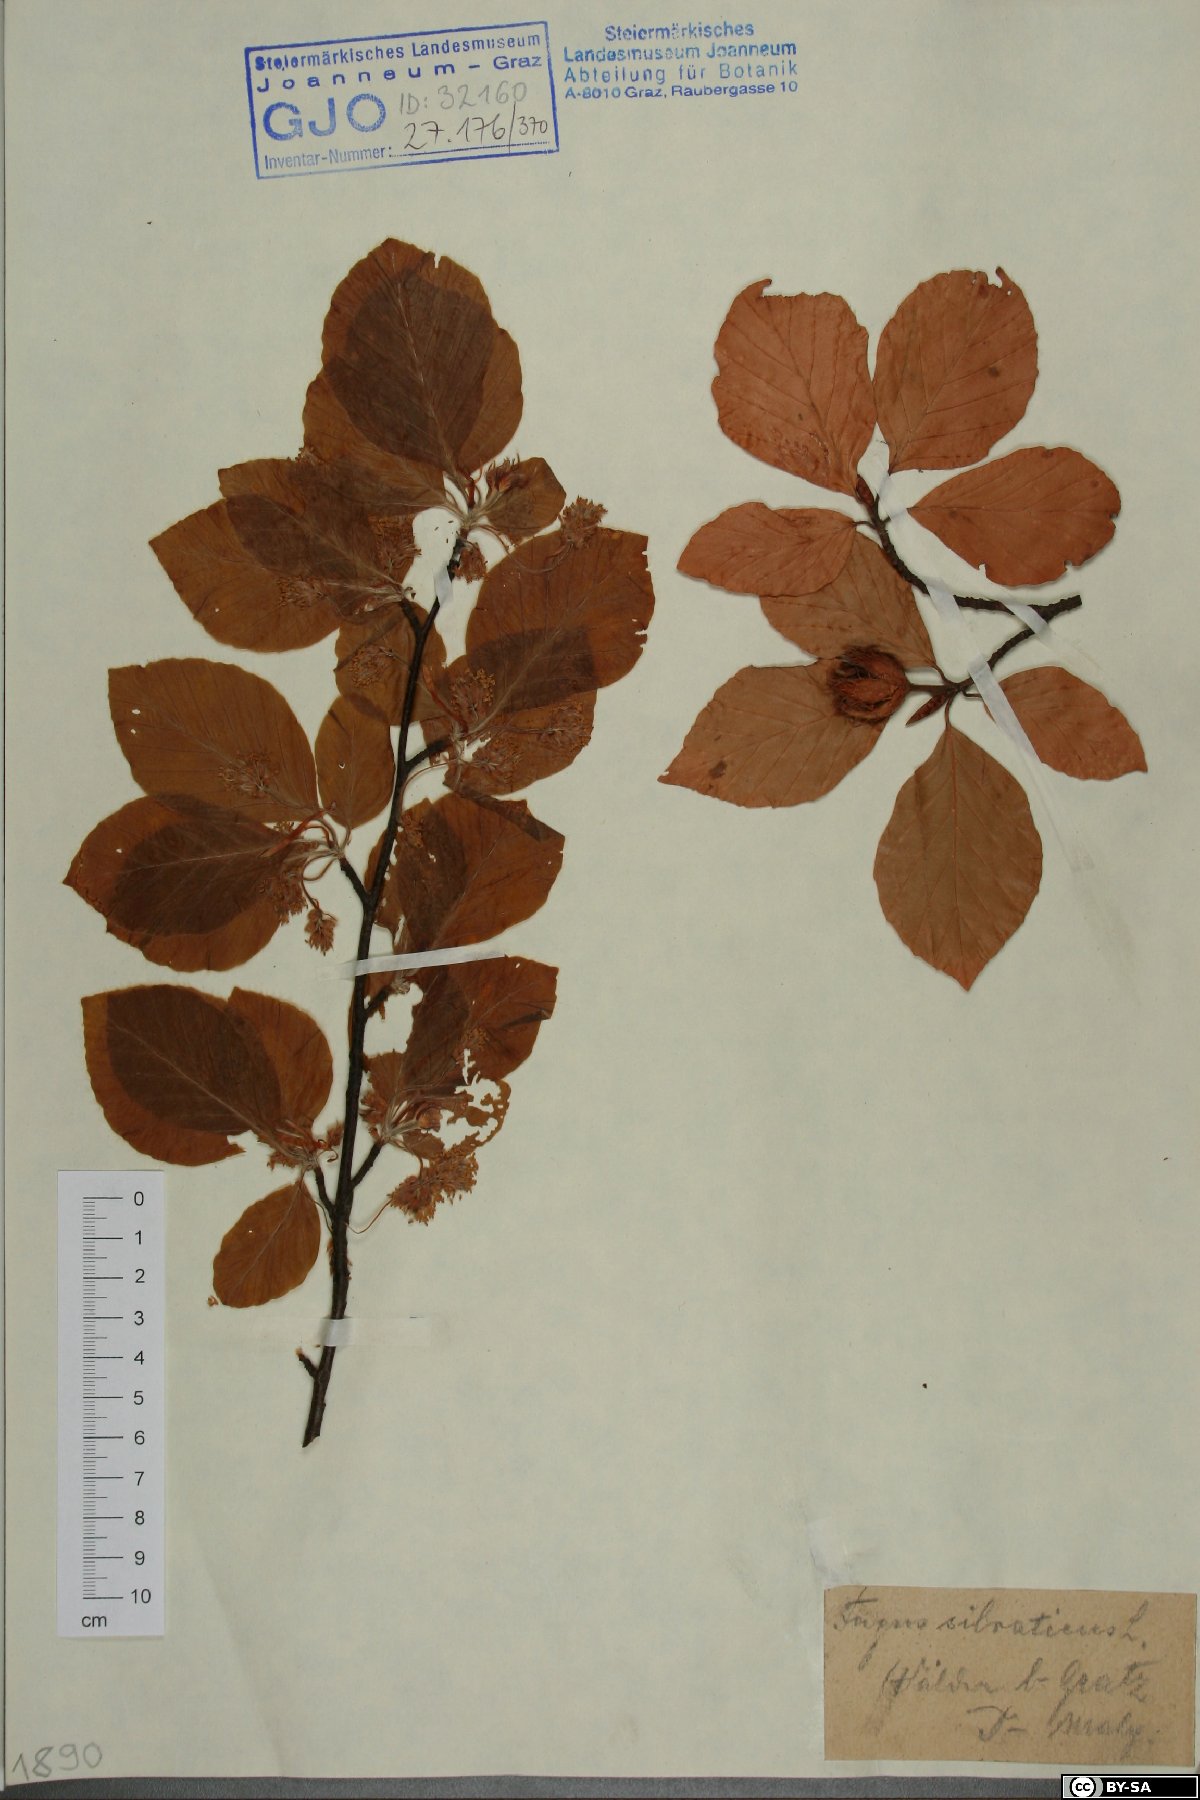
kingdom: Plantae
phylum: Tracheophyta
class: Magnoliopsida
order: Fagales
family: Fagaceae
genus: Fagus
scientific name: Fagus sylvatica
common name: Beech
